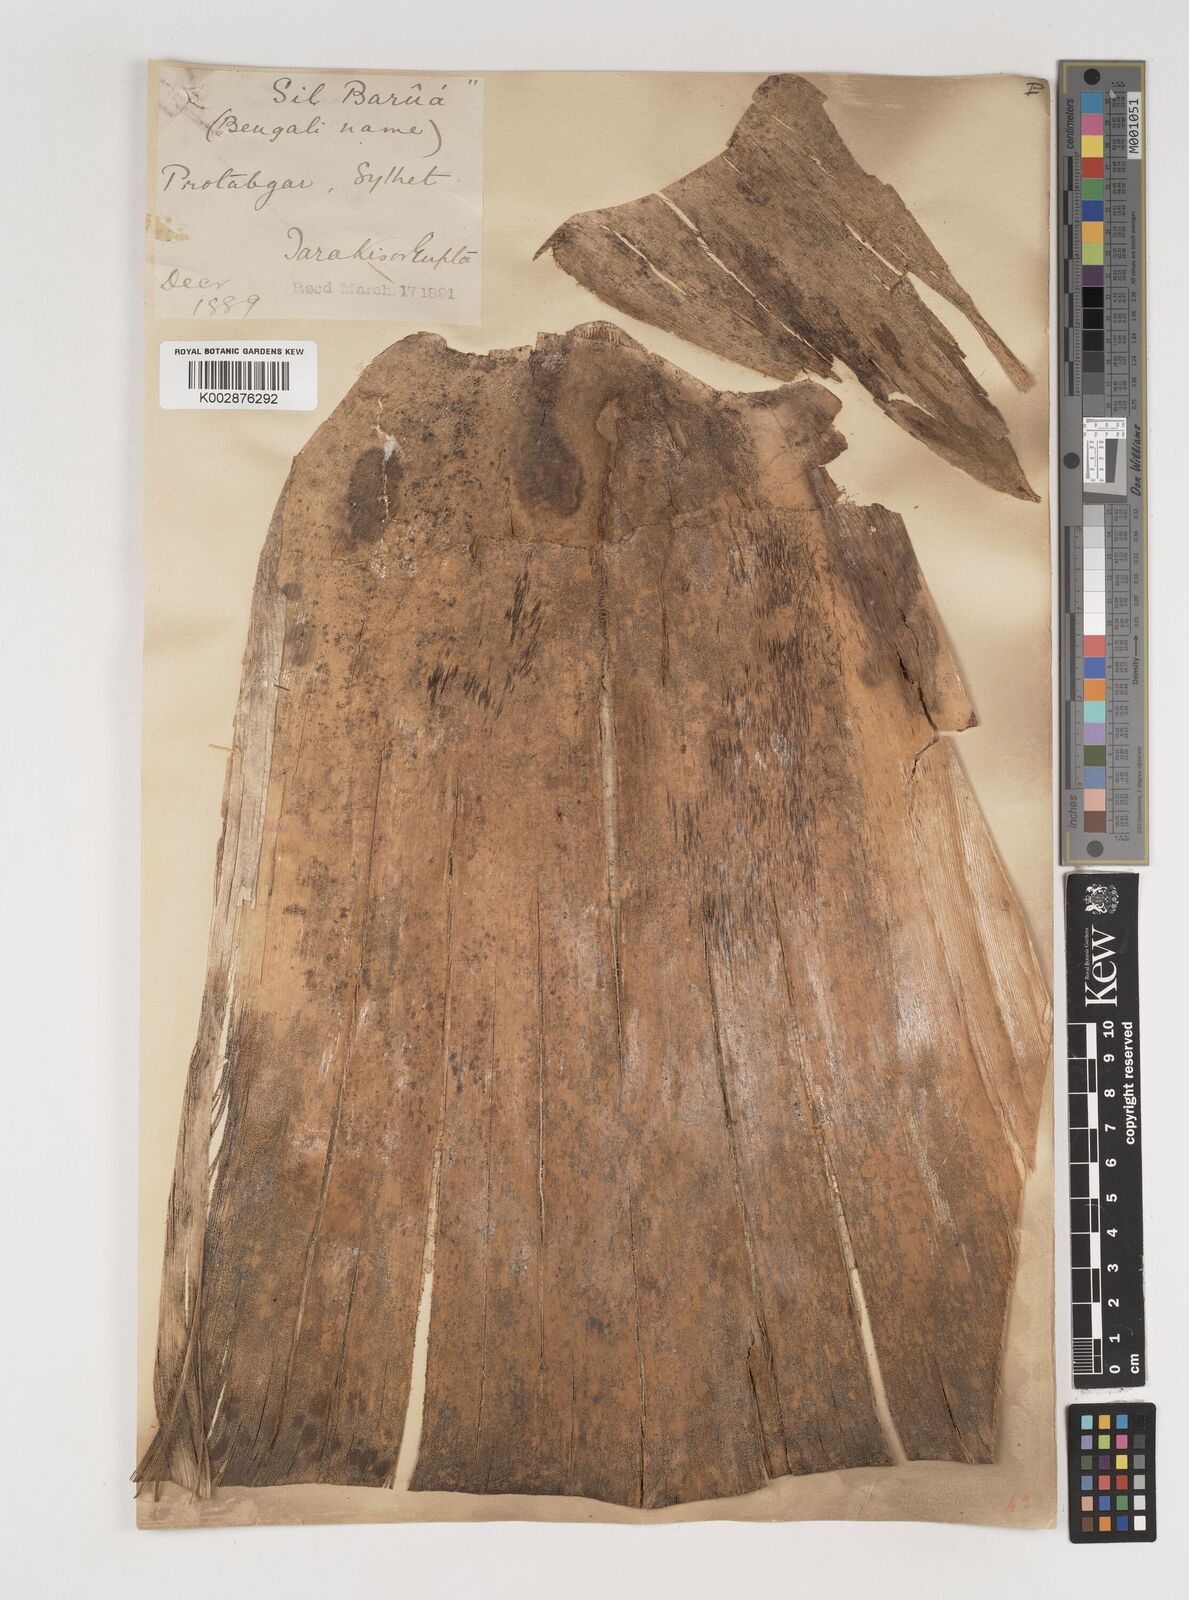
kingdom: Plantae
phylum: Tracheophyta
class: Liliopsida
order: Poales
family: Poaceae
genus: Bambusa
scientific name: Bambusa balcooa
